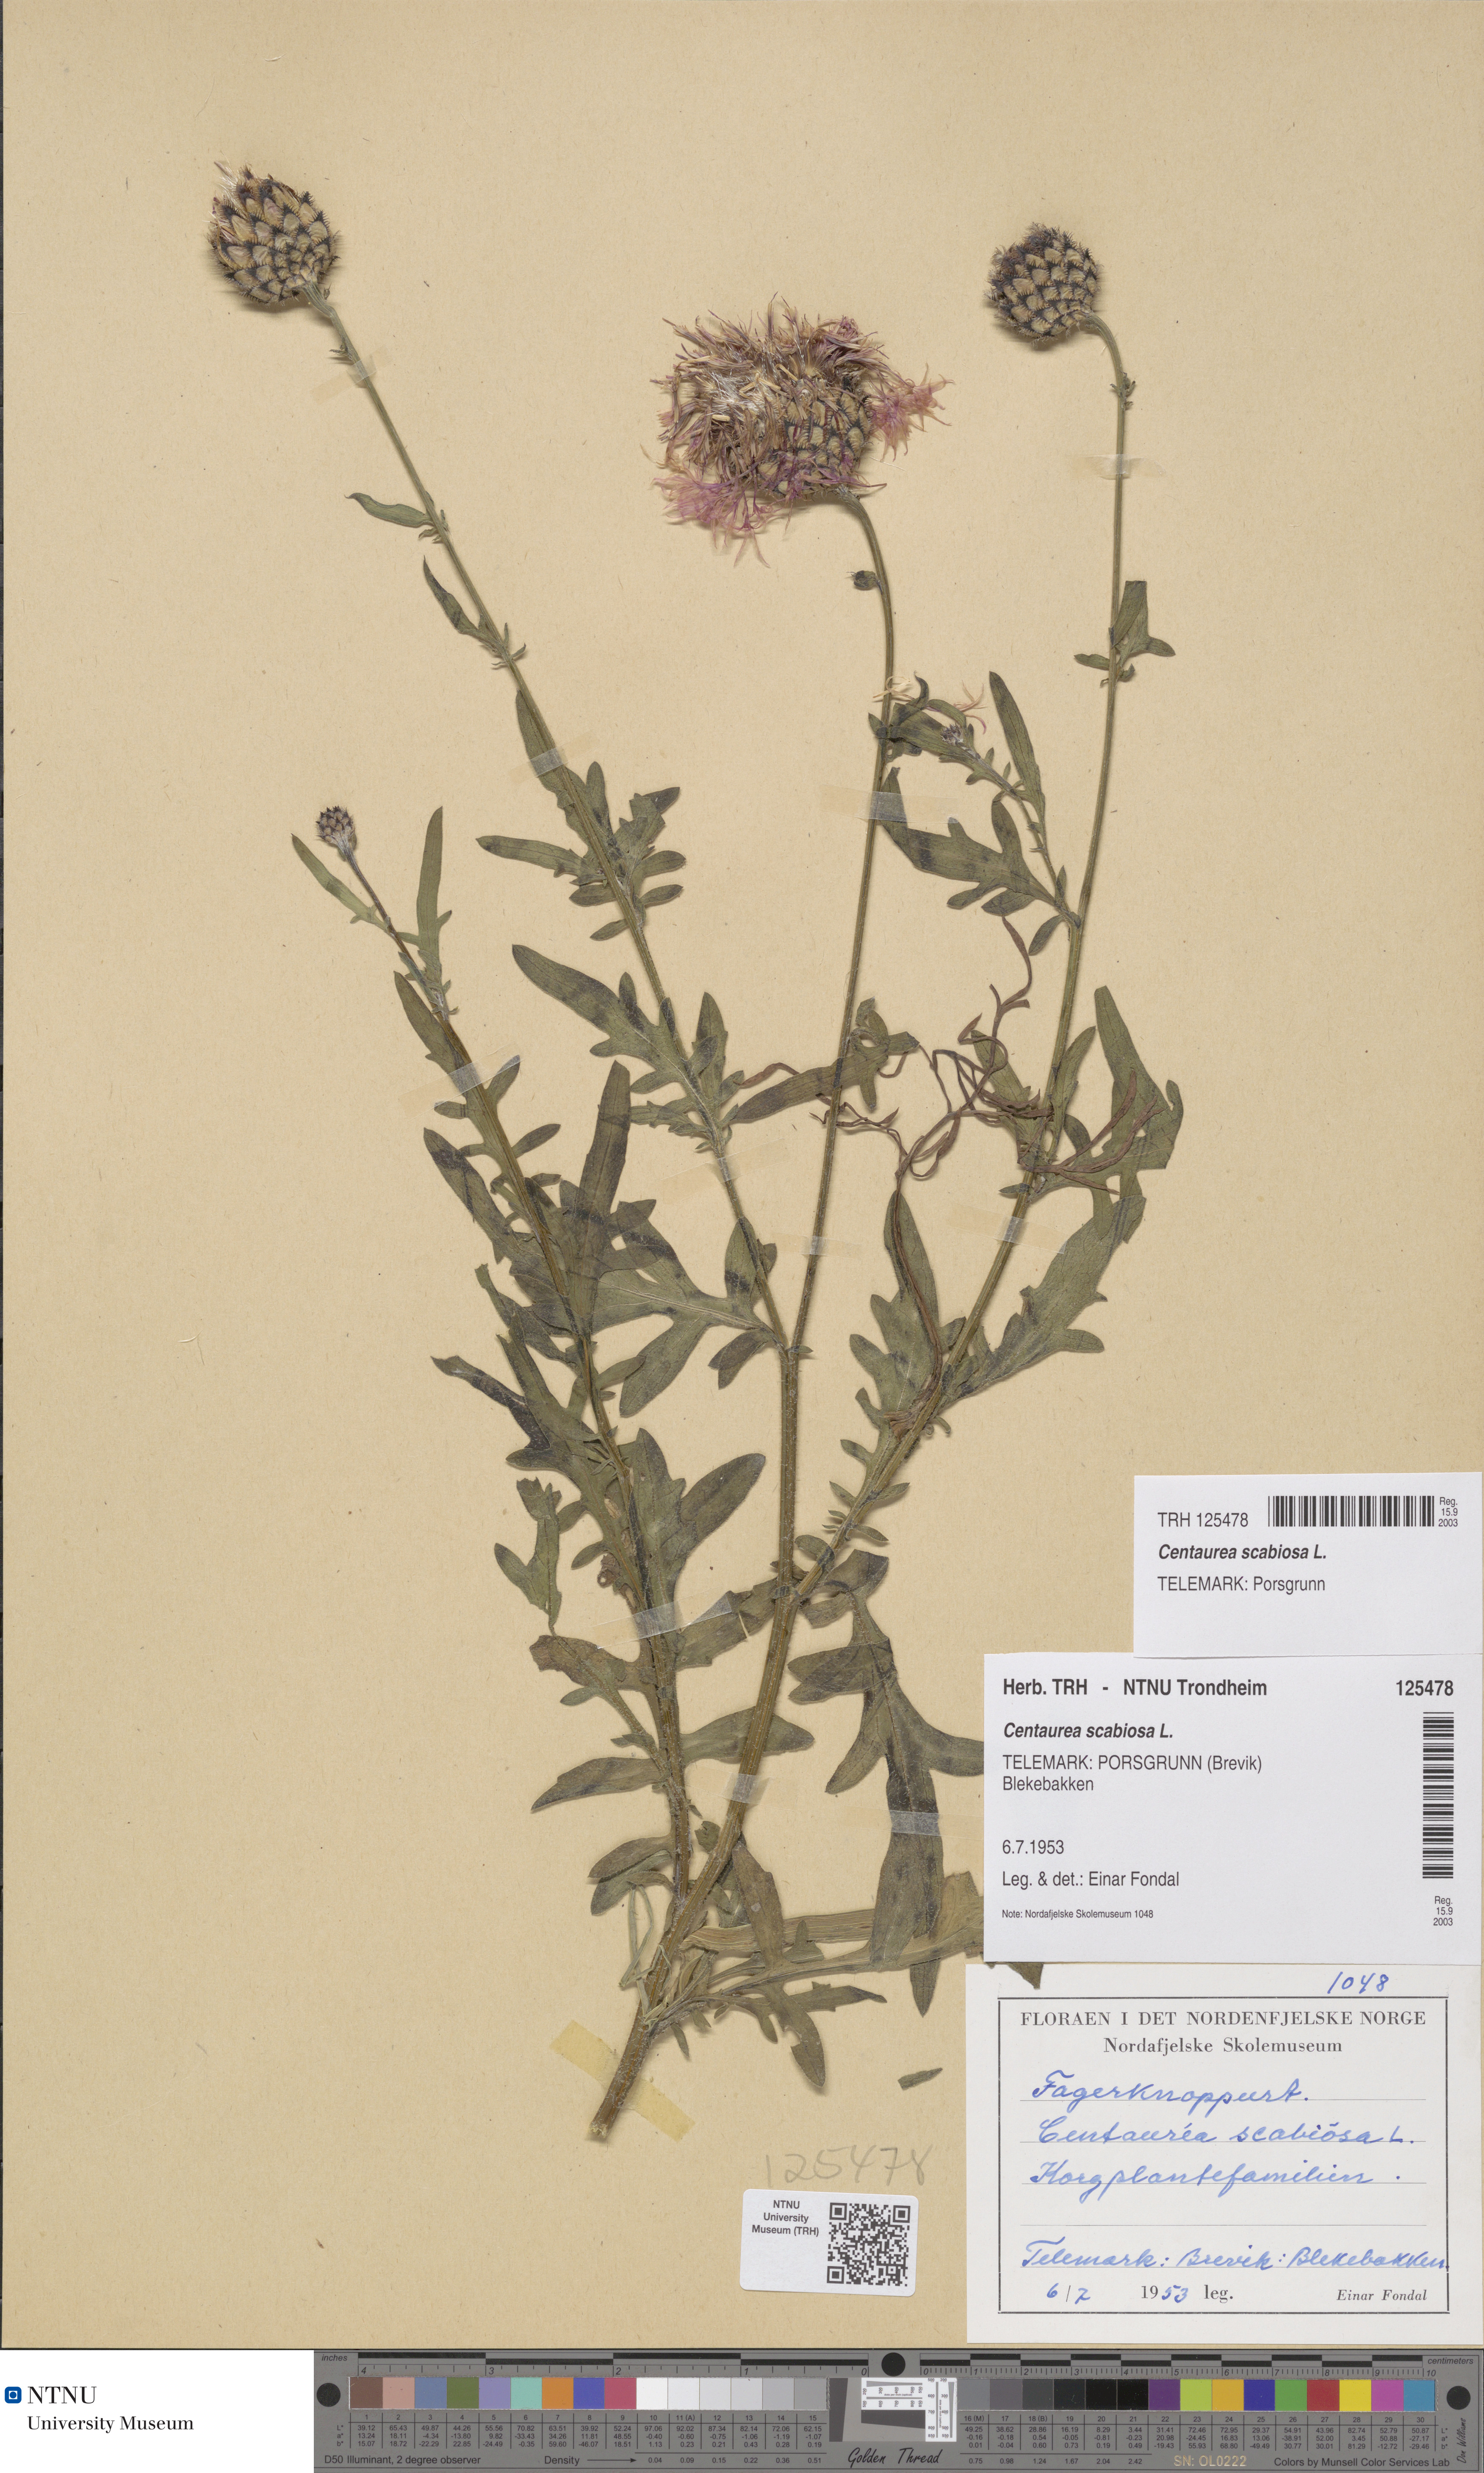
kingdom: Plantae
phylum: Tracheophyta
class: Magnoliopsida
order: Asterales
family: Asteraceae
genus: Centaurea
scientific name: Centaurea scabiosa
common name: Greater knapweed
